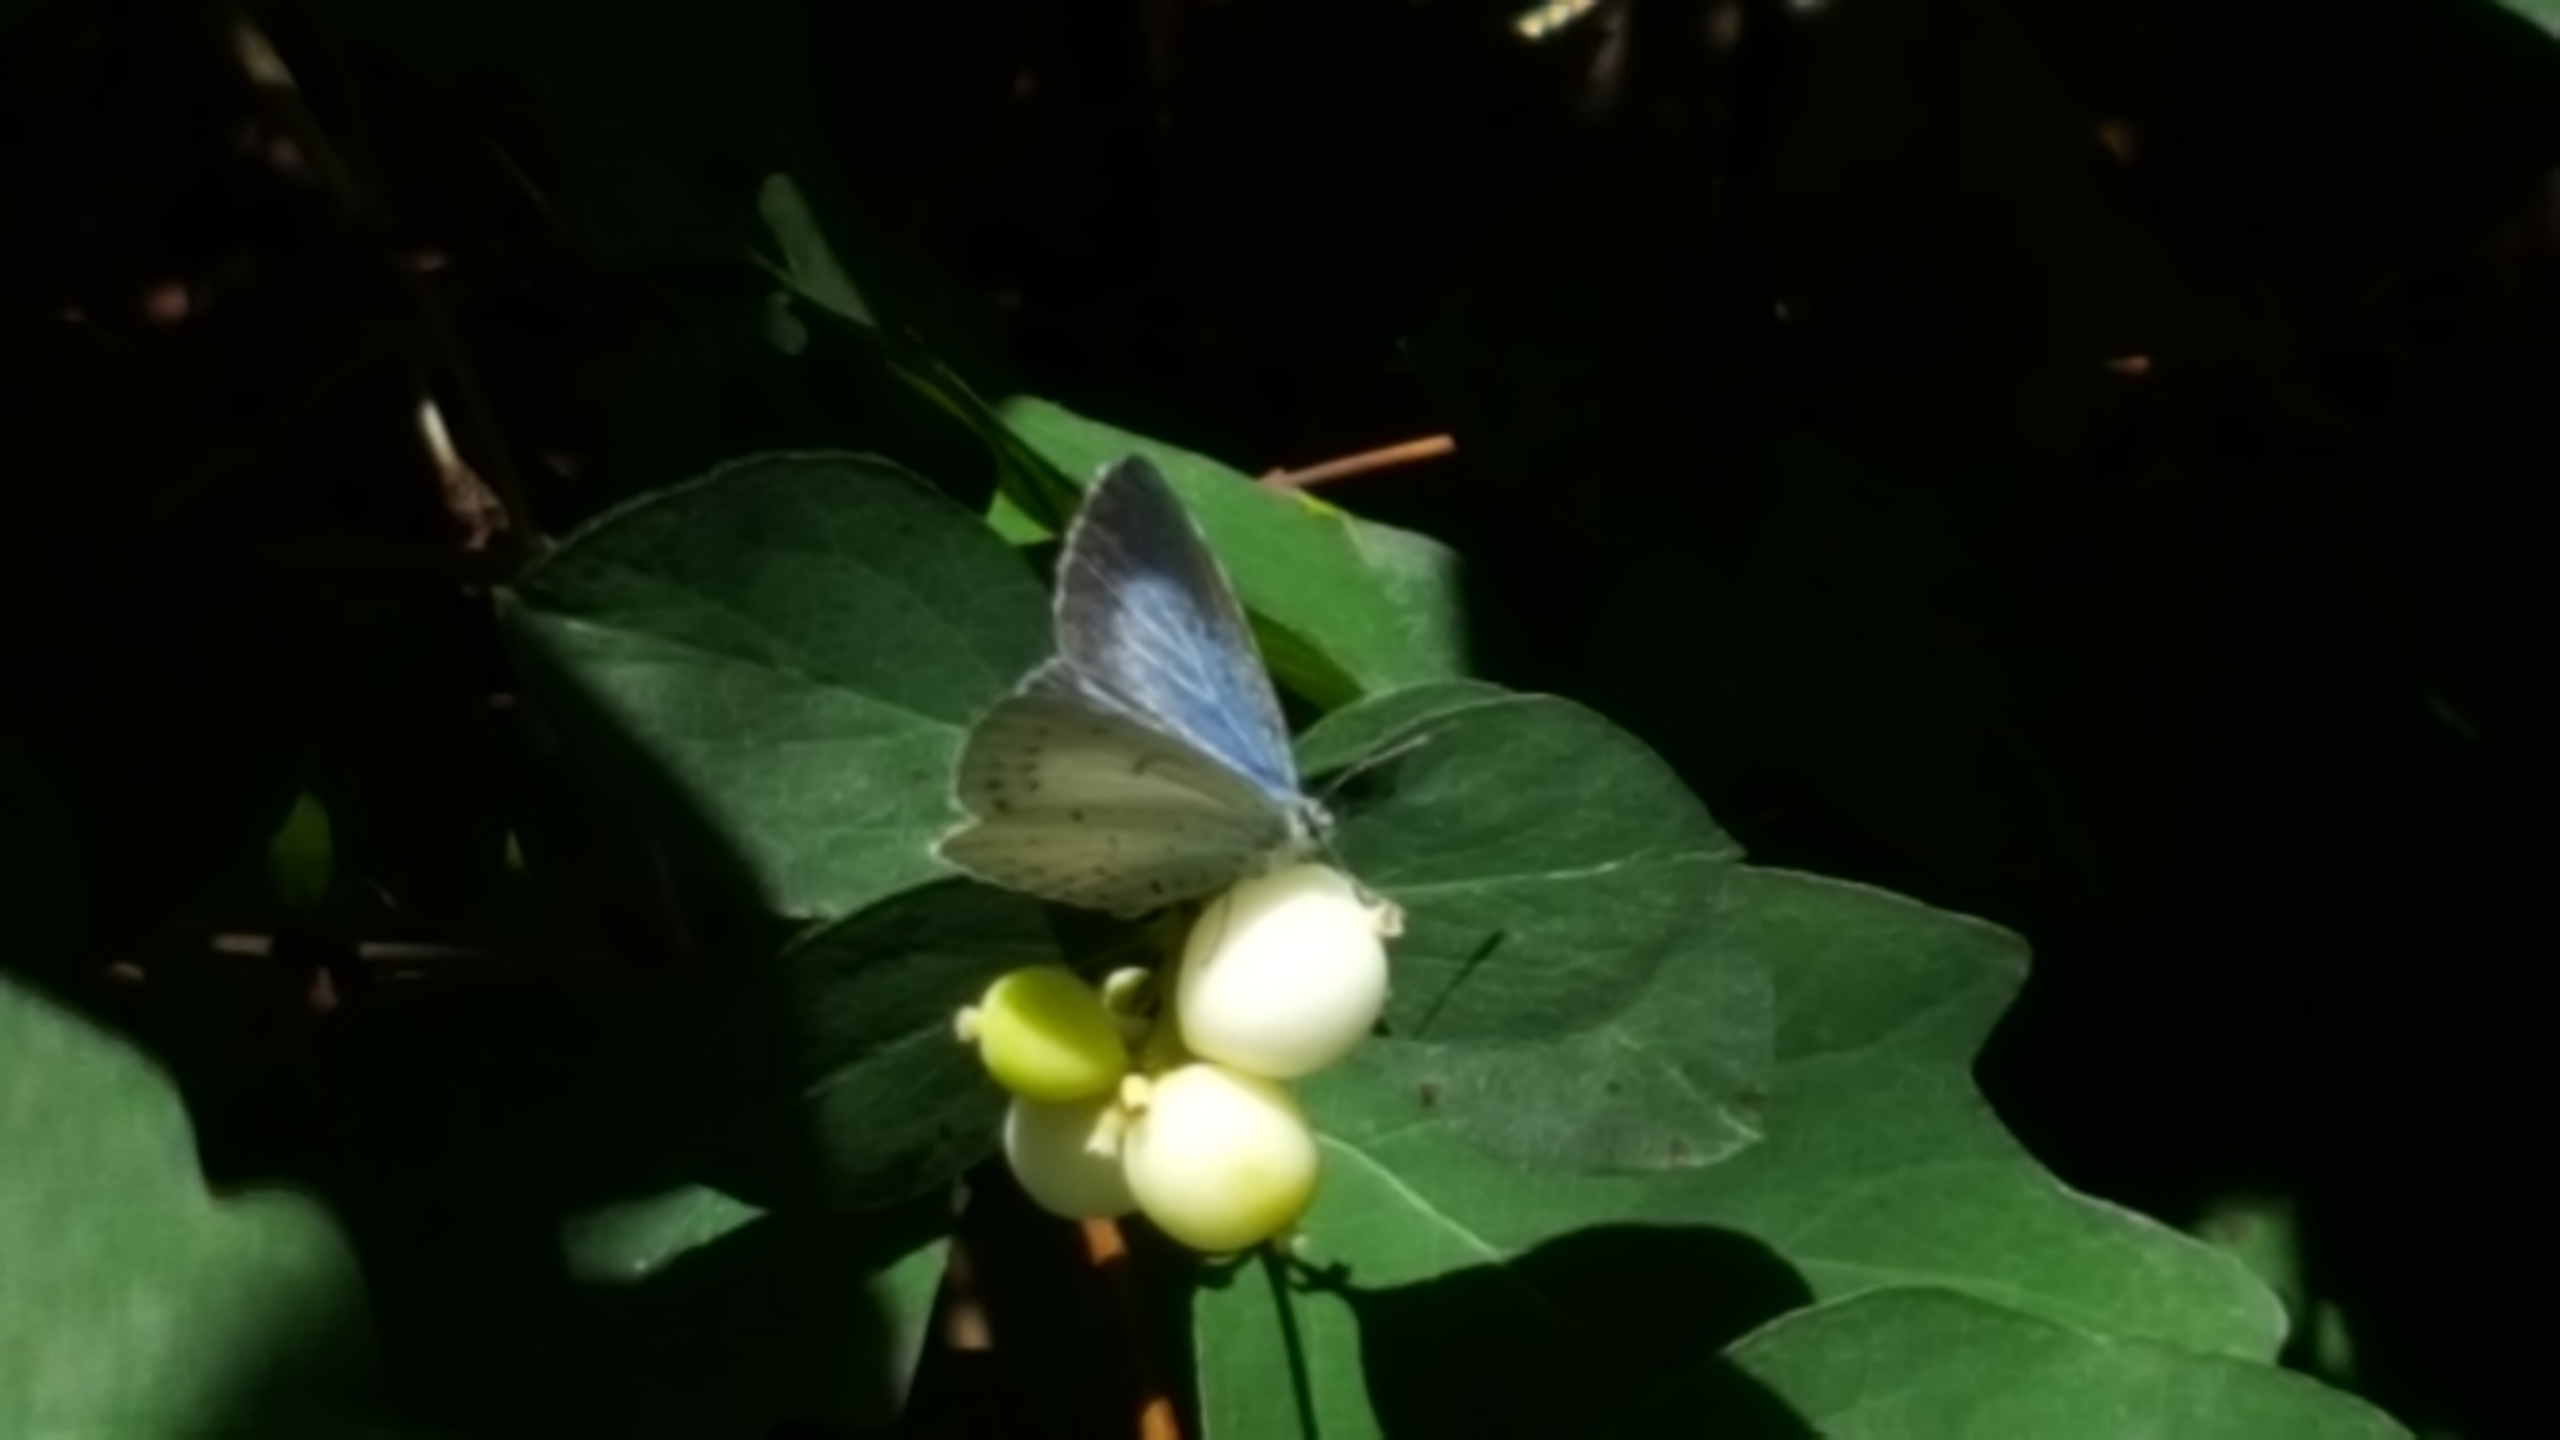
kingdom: Animalia
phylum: Arthropoda
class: Insecta
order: Lepidoptera
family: Lycaenidae
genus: Celastrina
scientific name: Celastrina argiolus
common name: Skovblåfugl
